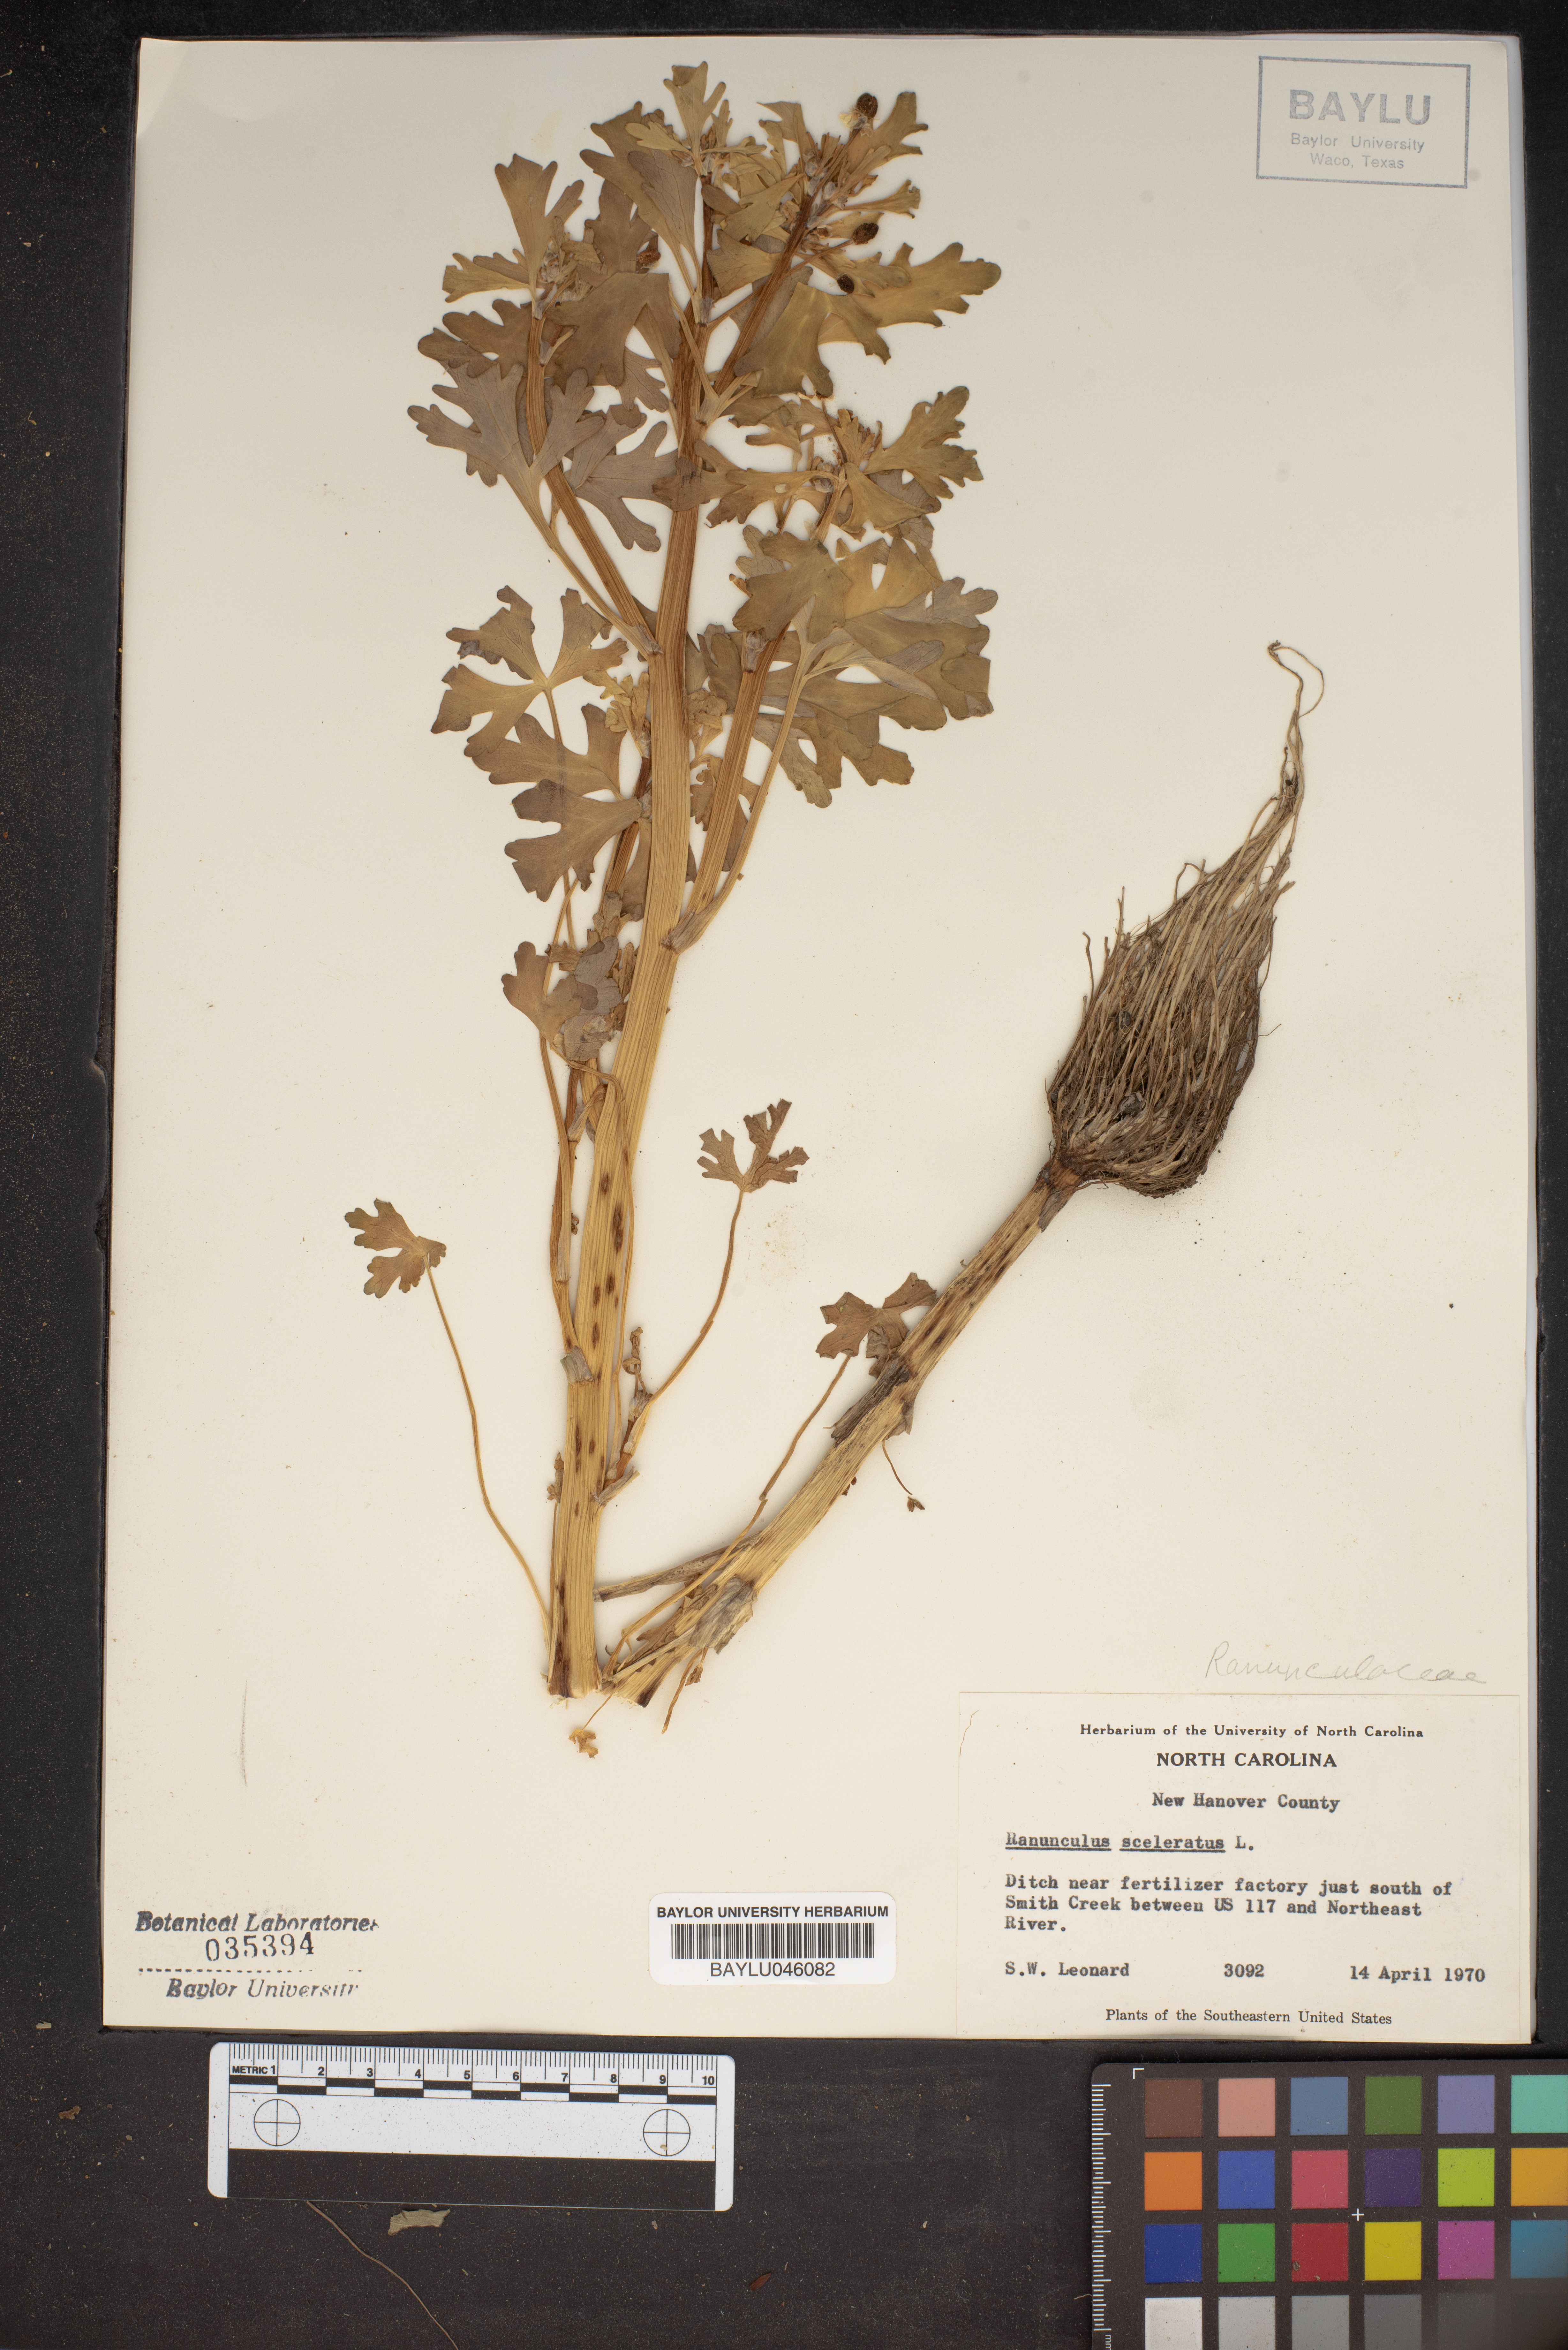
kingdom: Plantae
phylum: Tracheophyta
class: Magnoliopsida
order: Ranunculales
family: Ranunculaceae
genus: Ranunculus
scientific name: Ranunculus sceleratus
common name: Celery-leaved buttercup
